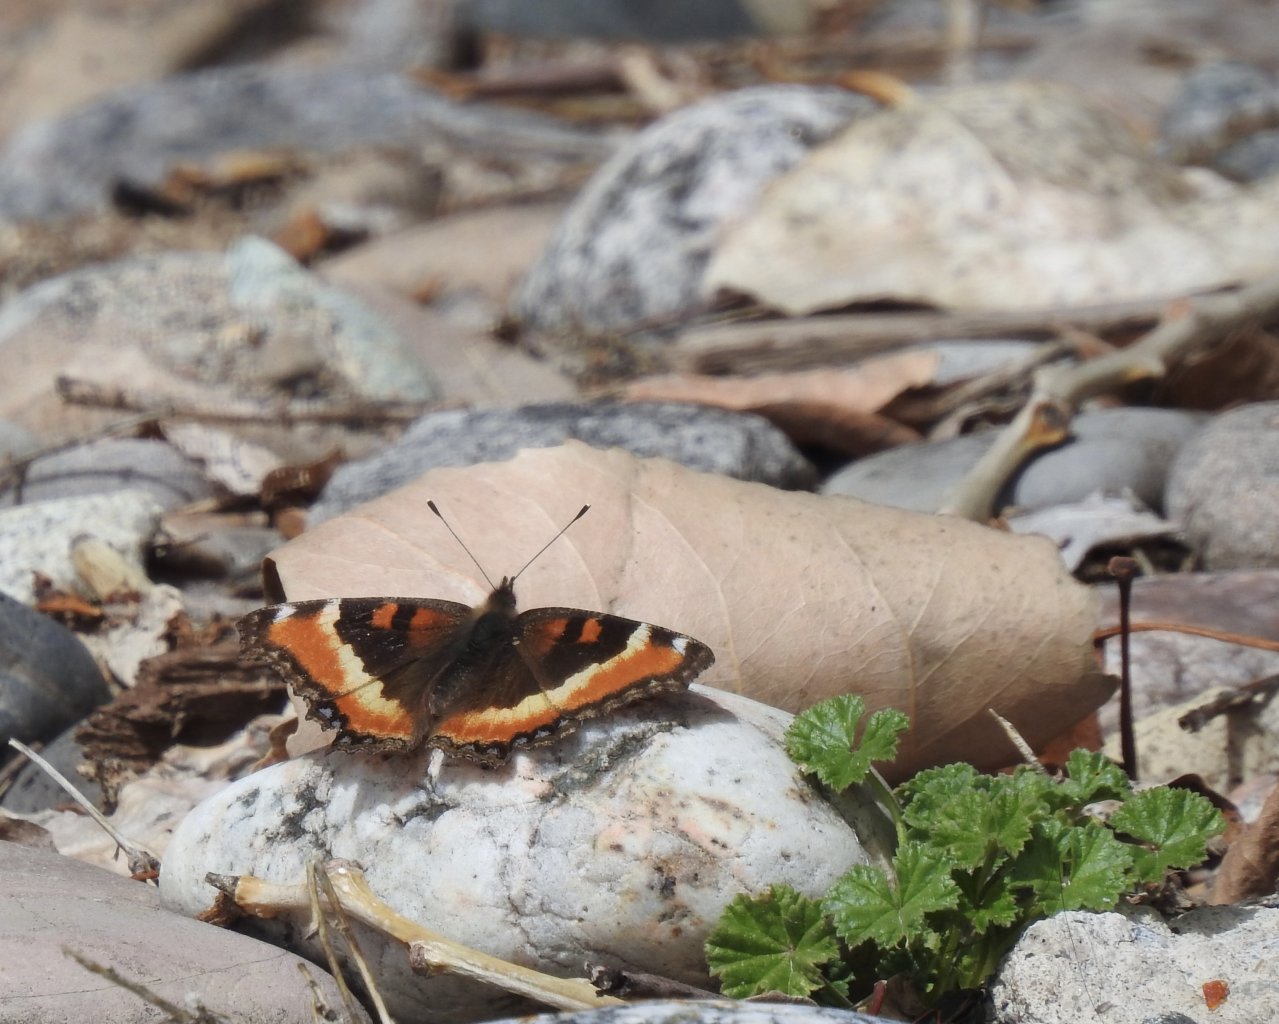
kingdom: Animalia
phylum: Arthropoda
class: Insecta
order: Lepidoptera
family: Nymphalidae
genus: Aglais
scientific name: Aglais milberti
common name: Milbert's Tortoiseshell
